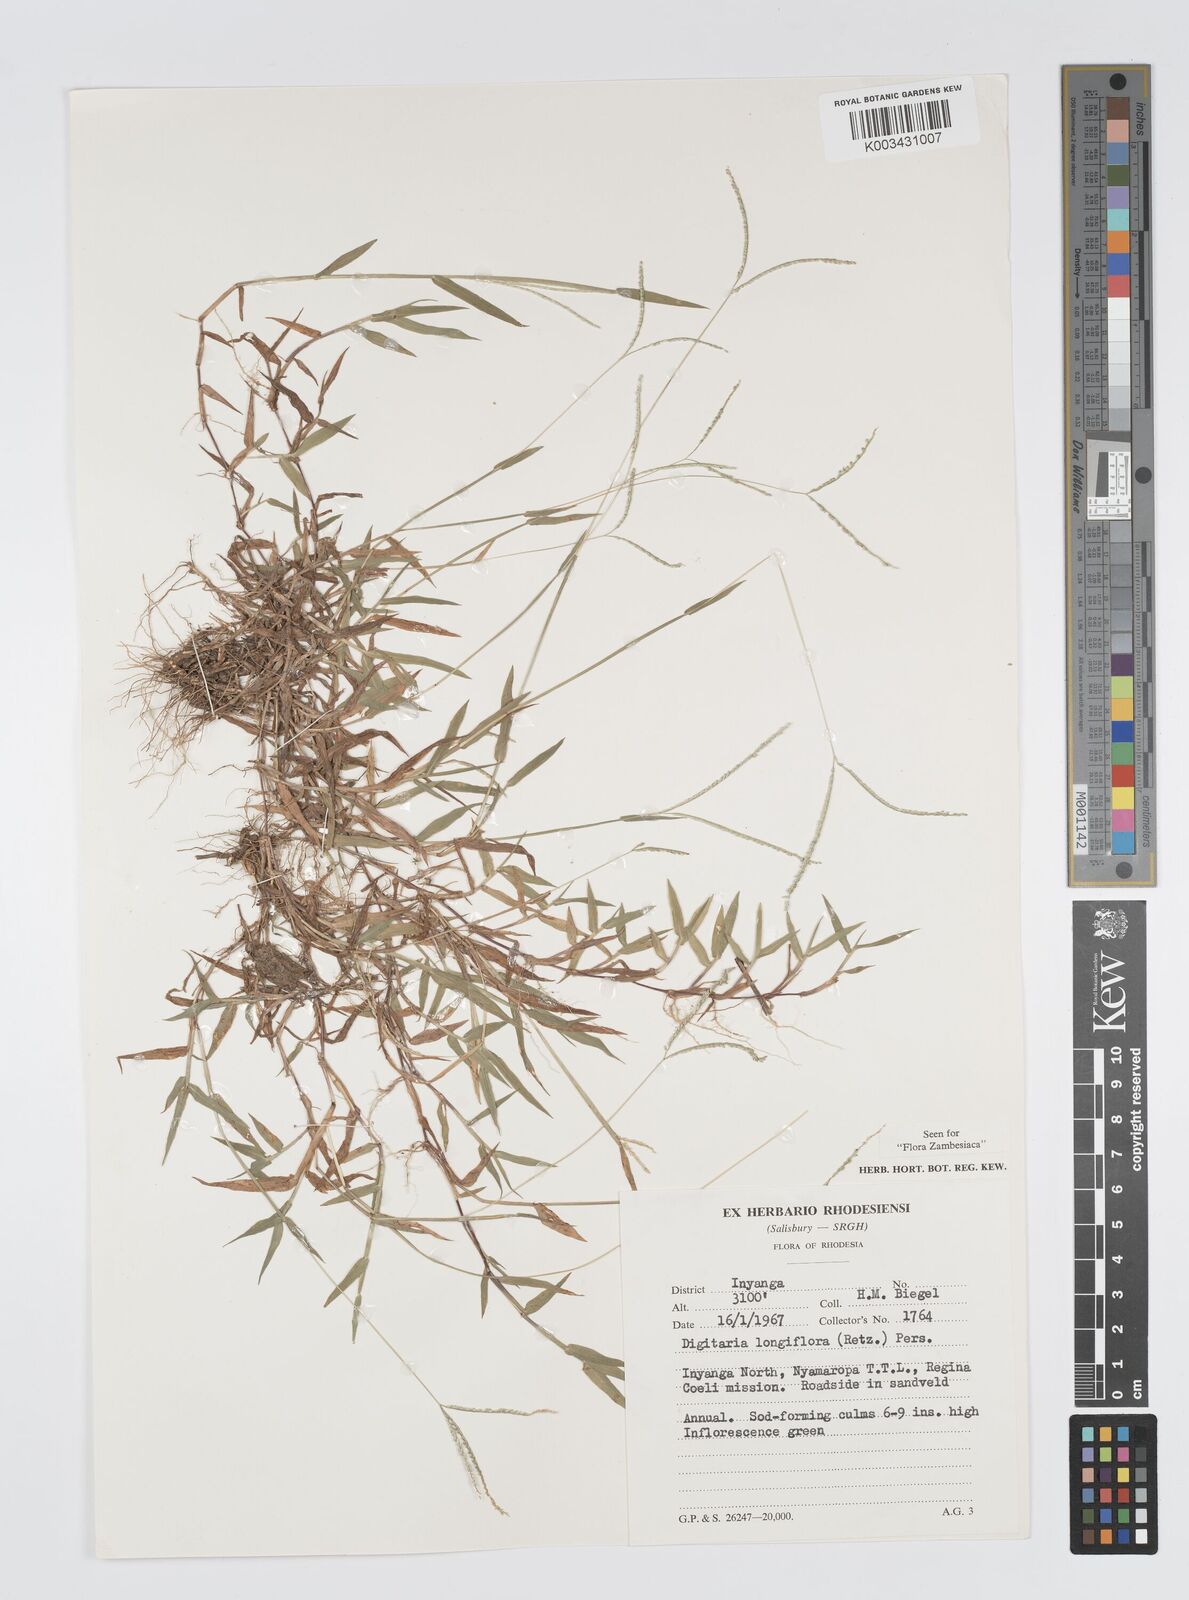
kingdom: Plantae
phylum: Tracheophyta
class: Liliopsida
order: Poales
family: Poaceae
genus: Digitaria
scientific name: Digitaria longiflora
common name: Wire crabgrass
